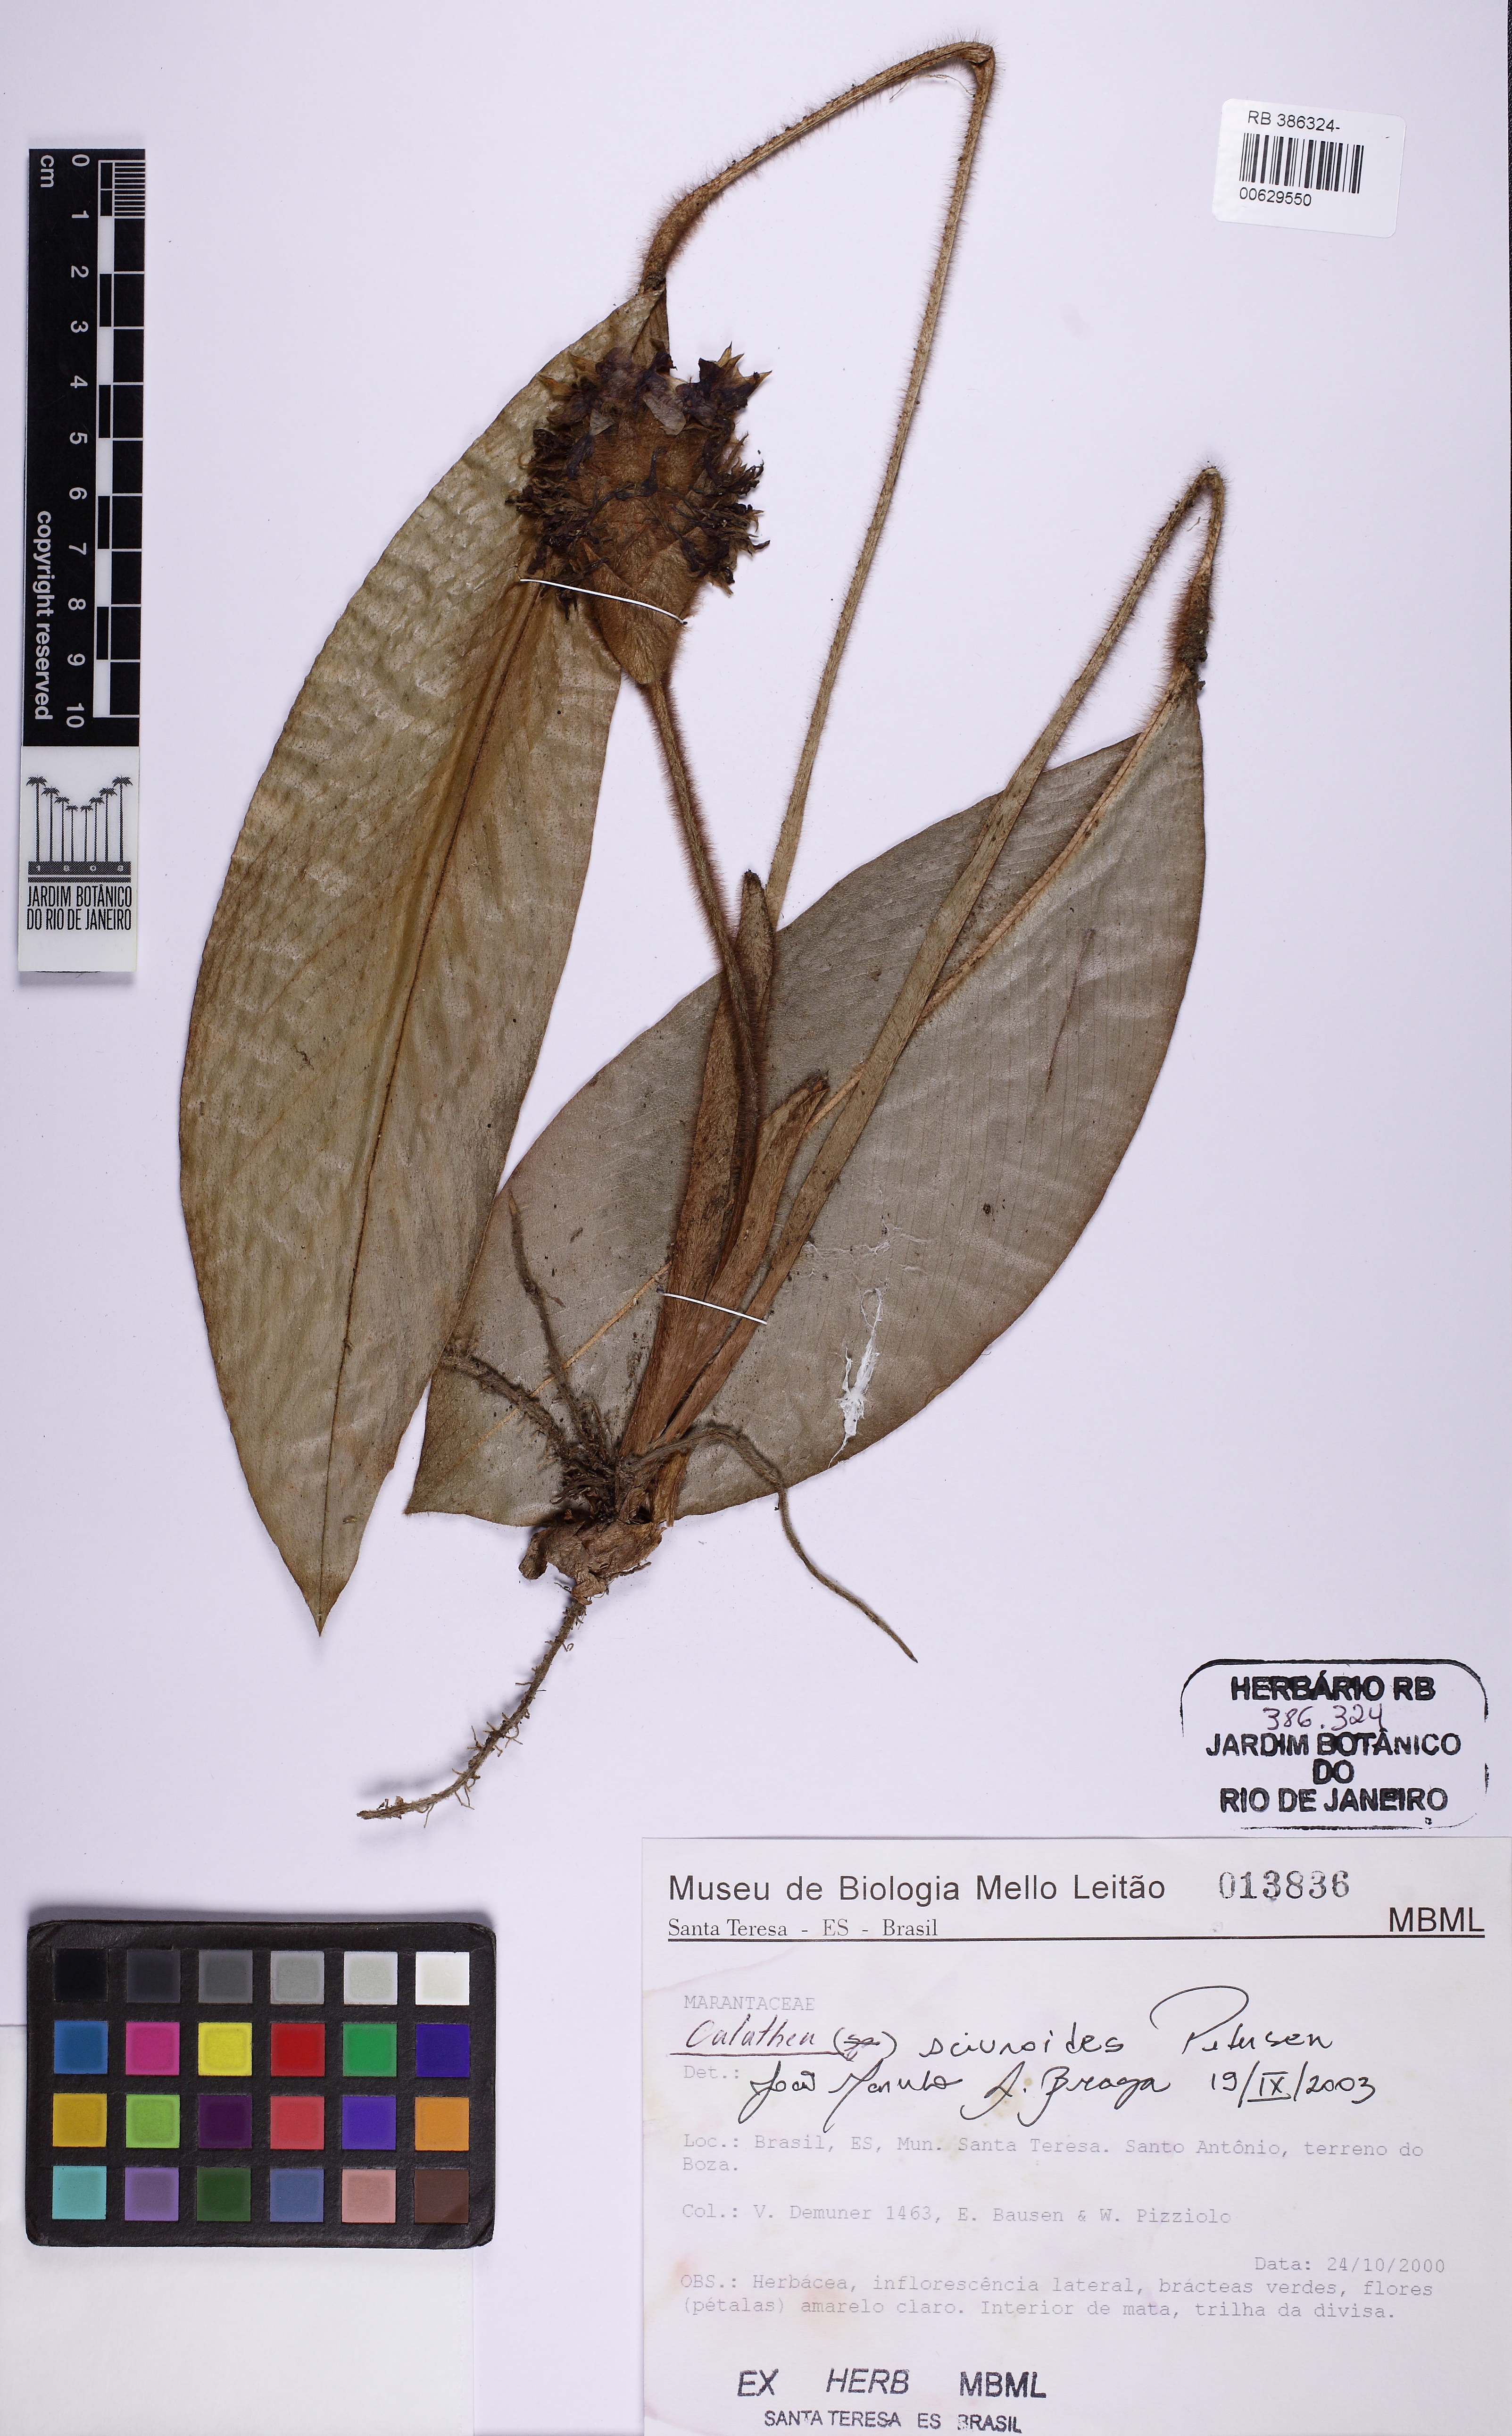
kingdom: Plantae
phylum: Tracheophyta
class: Liliopsida
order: Zingiberales
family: Marantaceae
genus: Goeppertia
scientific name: Goeppertia sciuroides
